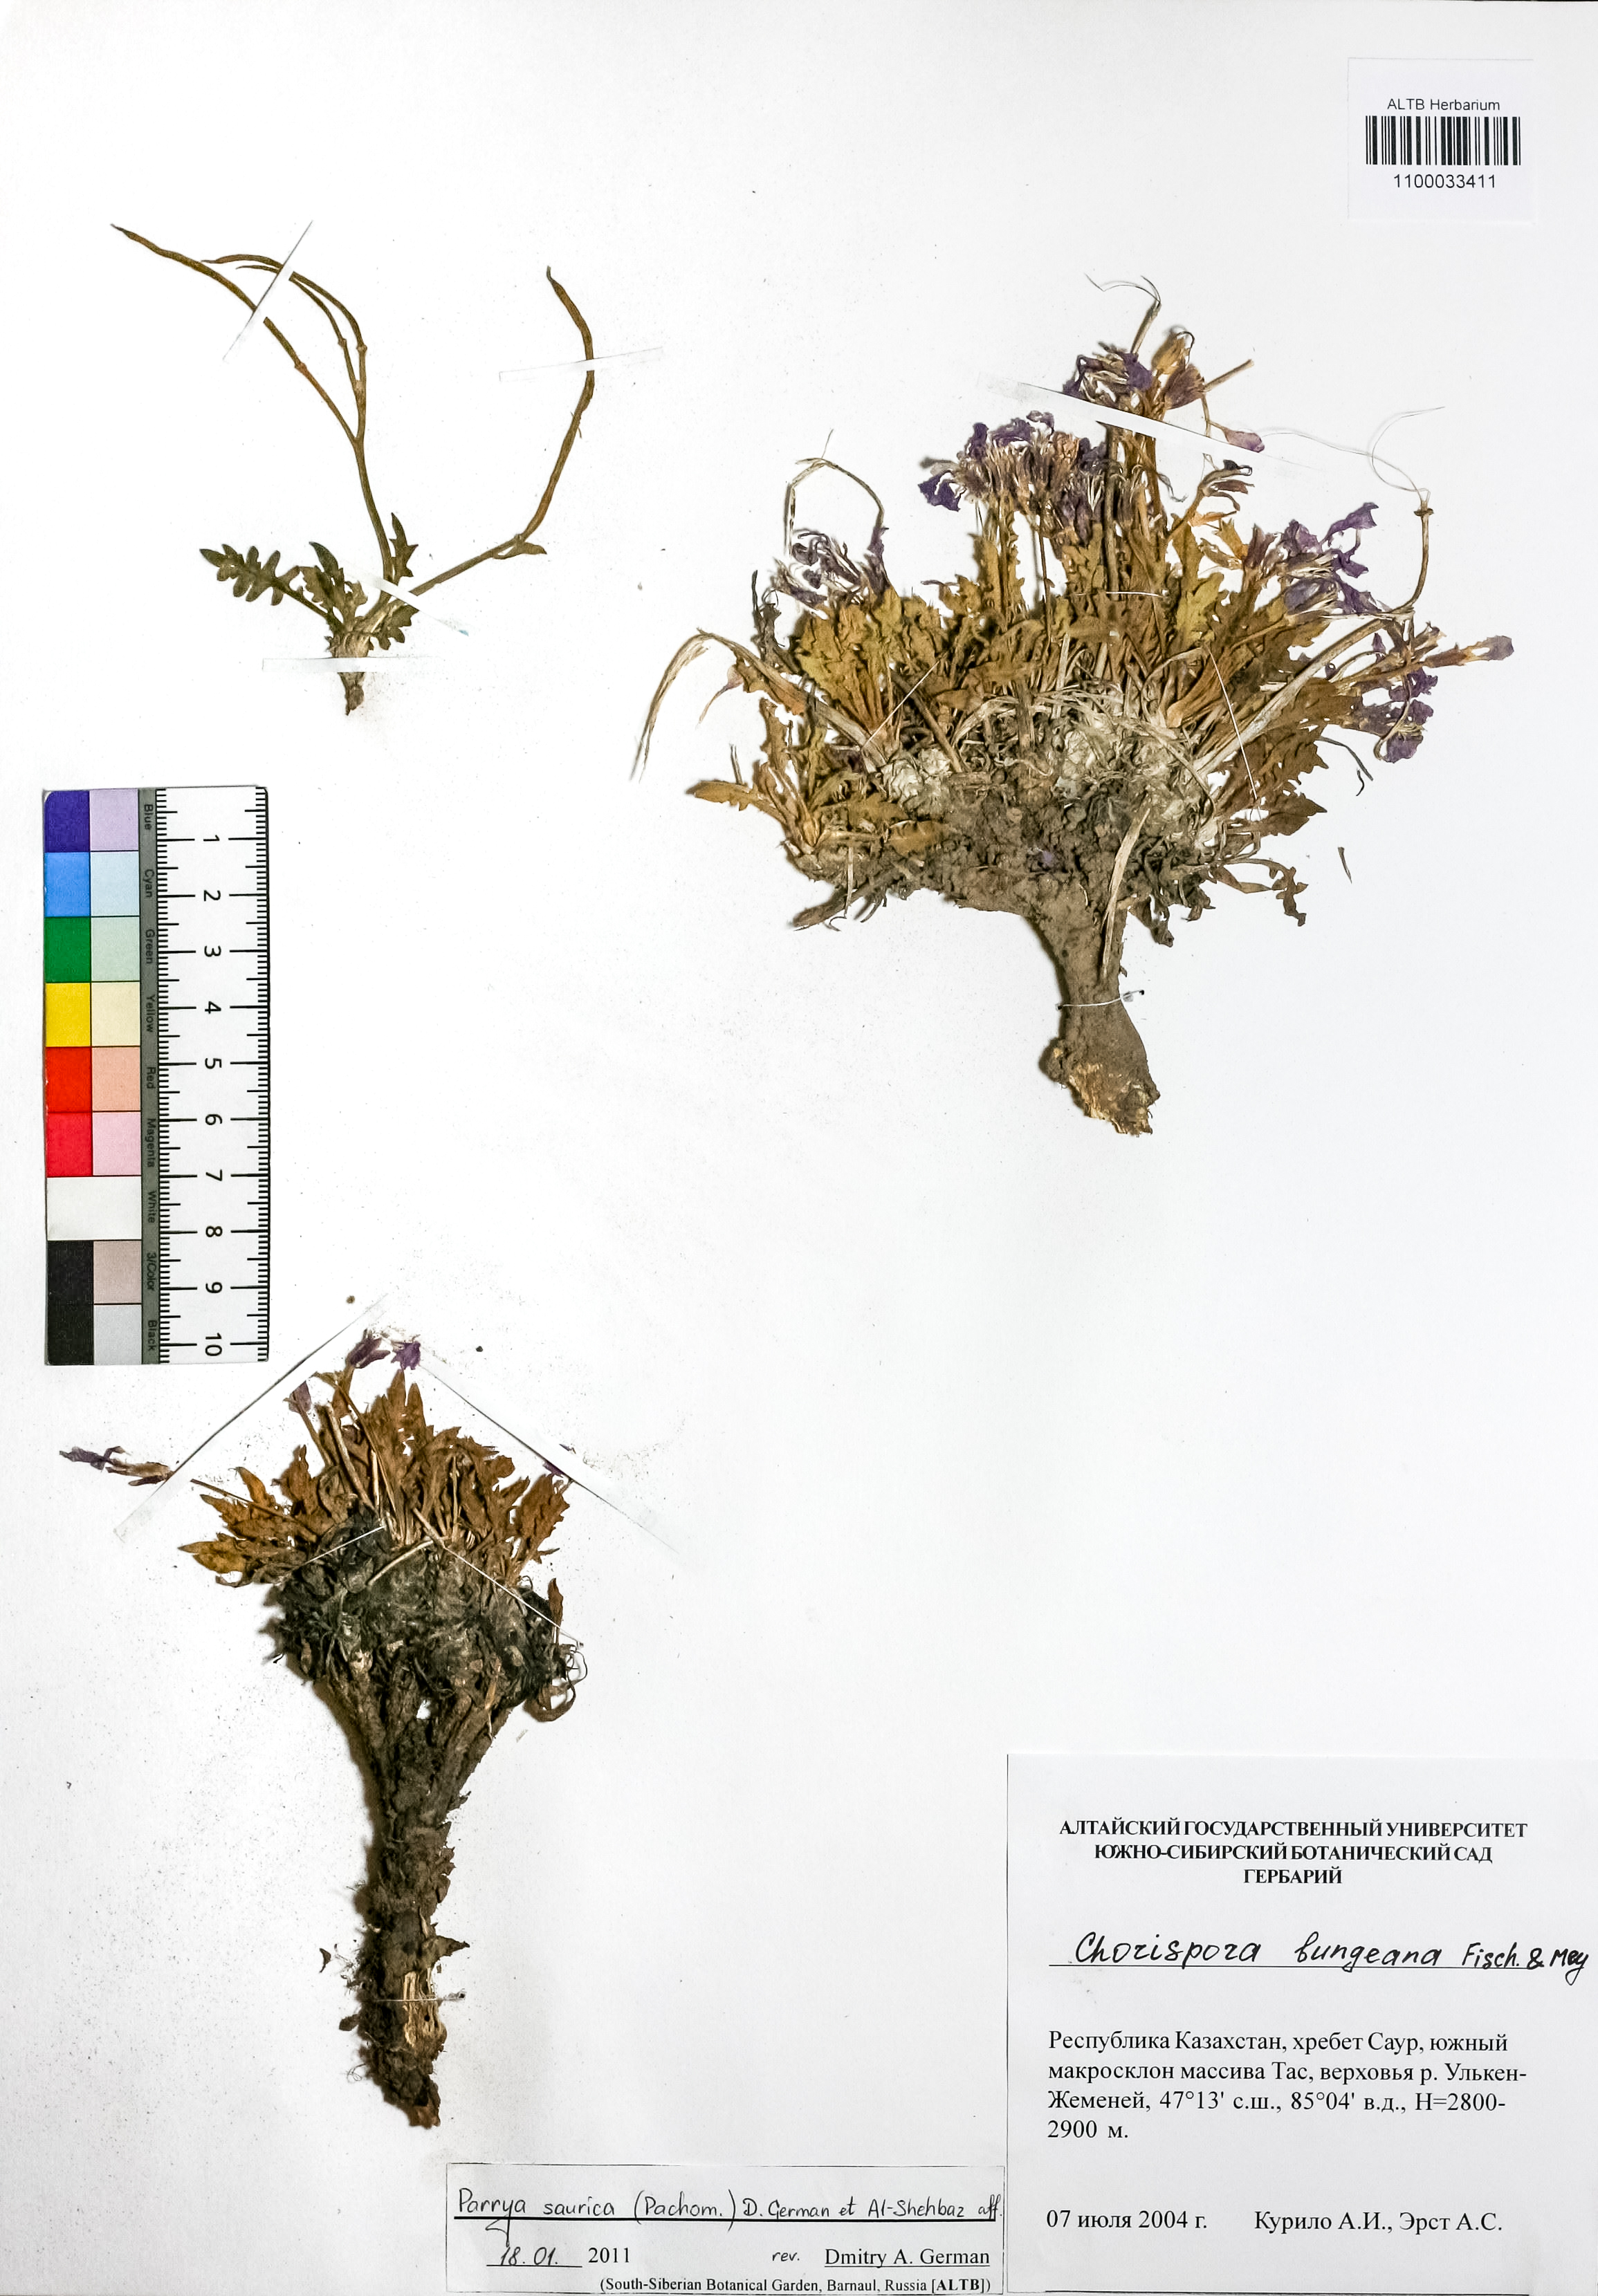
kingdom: Plantae
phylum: Tracheophyta
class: Magnoliopsida
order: Brassicales
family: Brassicaceae
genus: Parrya
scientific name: Parrya saurica
